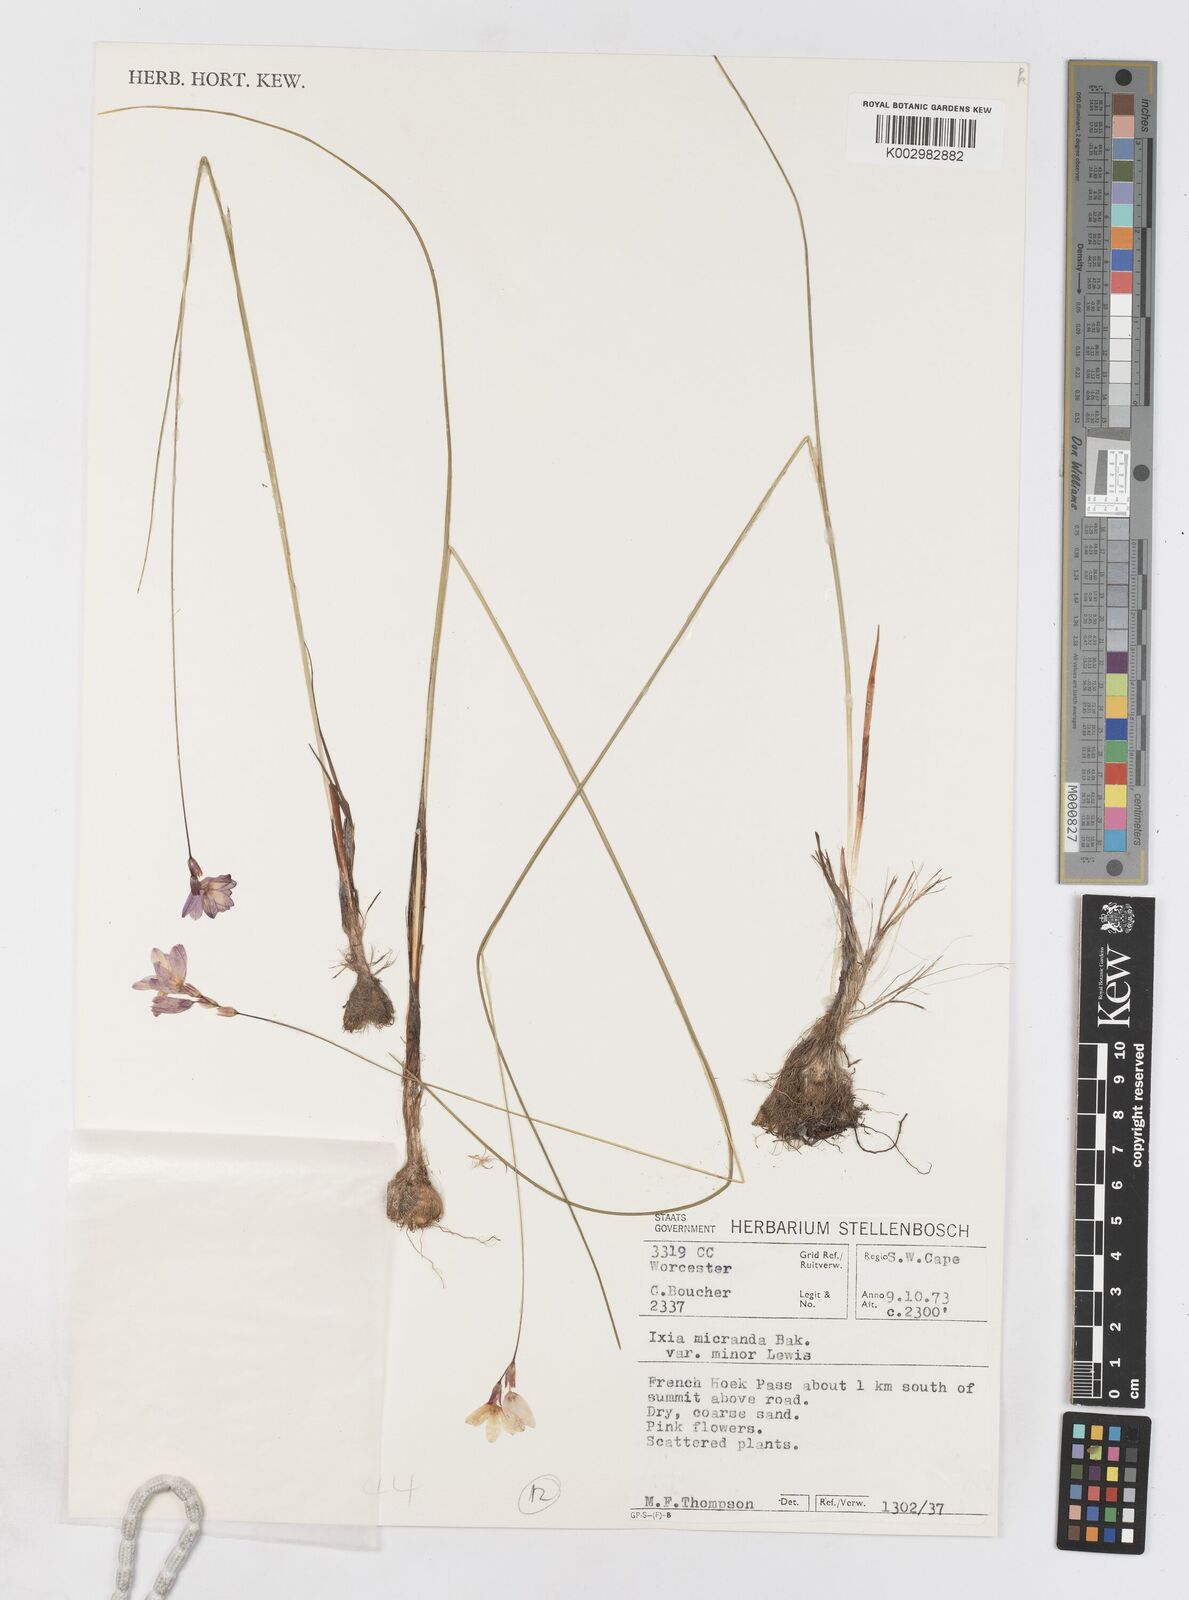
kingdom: Plantae
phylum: Tracheophyta
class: Liliopsida
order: Asparagales
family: Iridaceae
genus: Ixia
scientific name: Ixia minor
